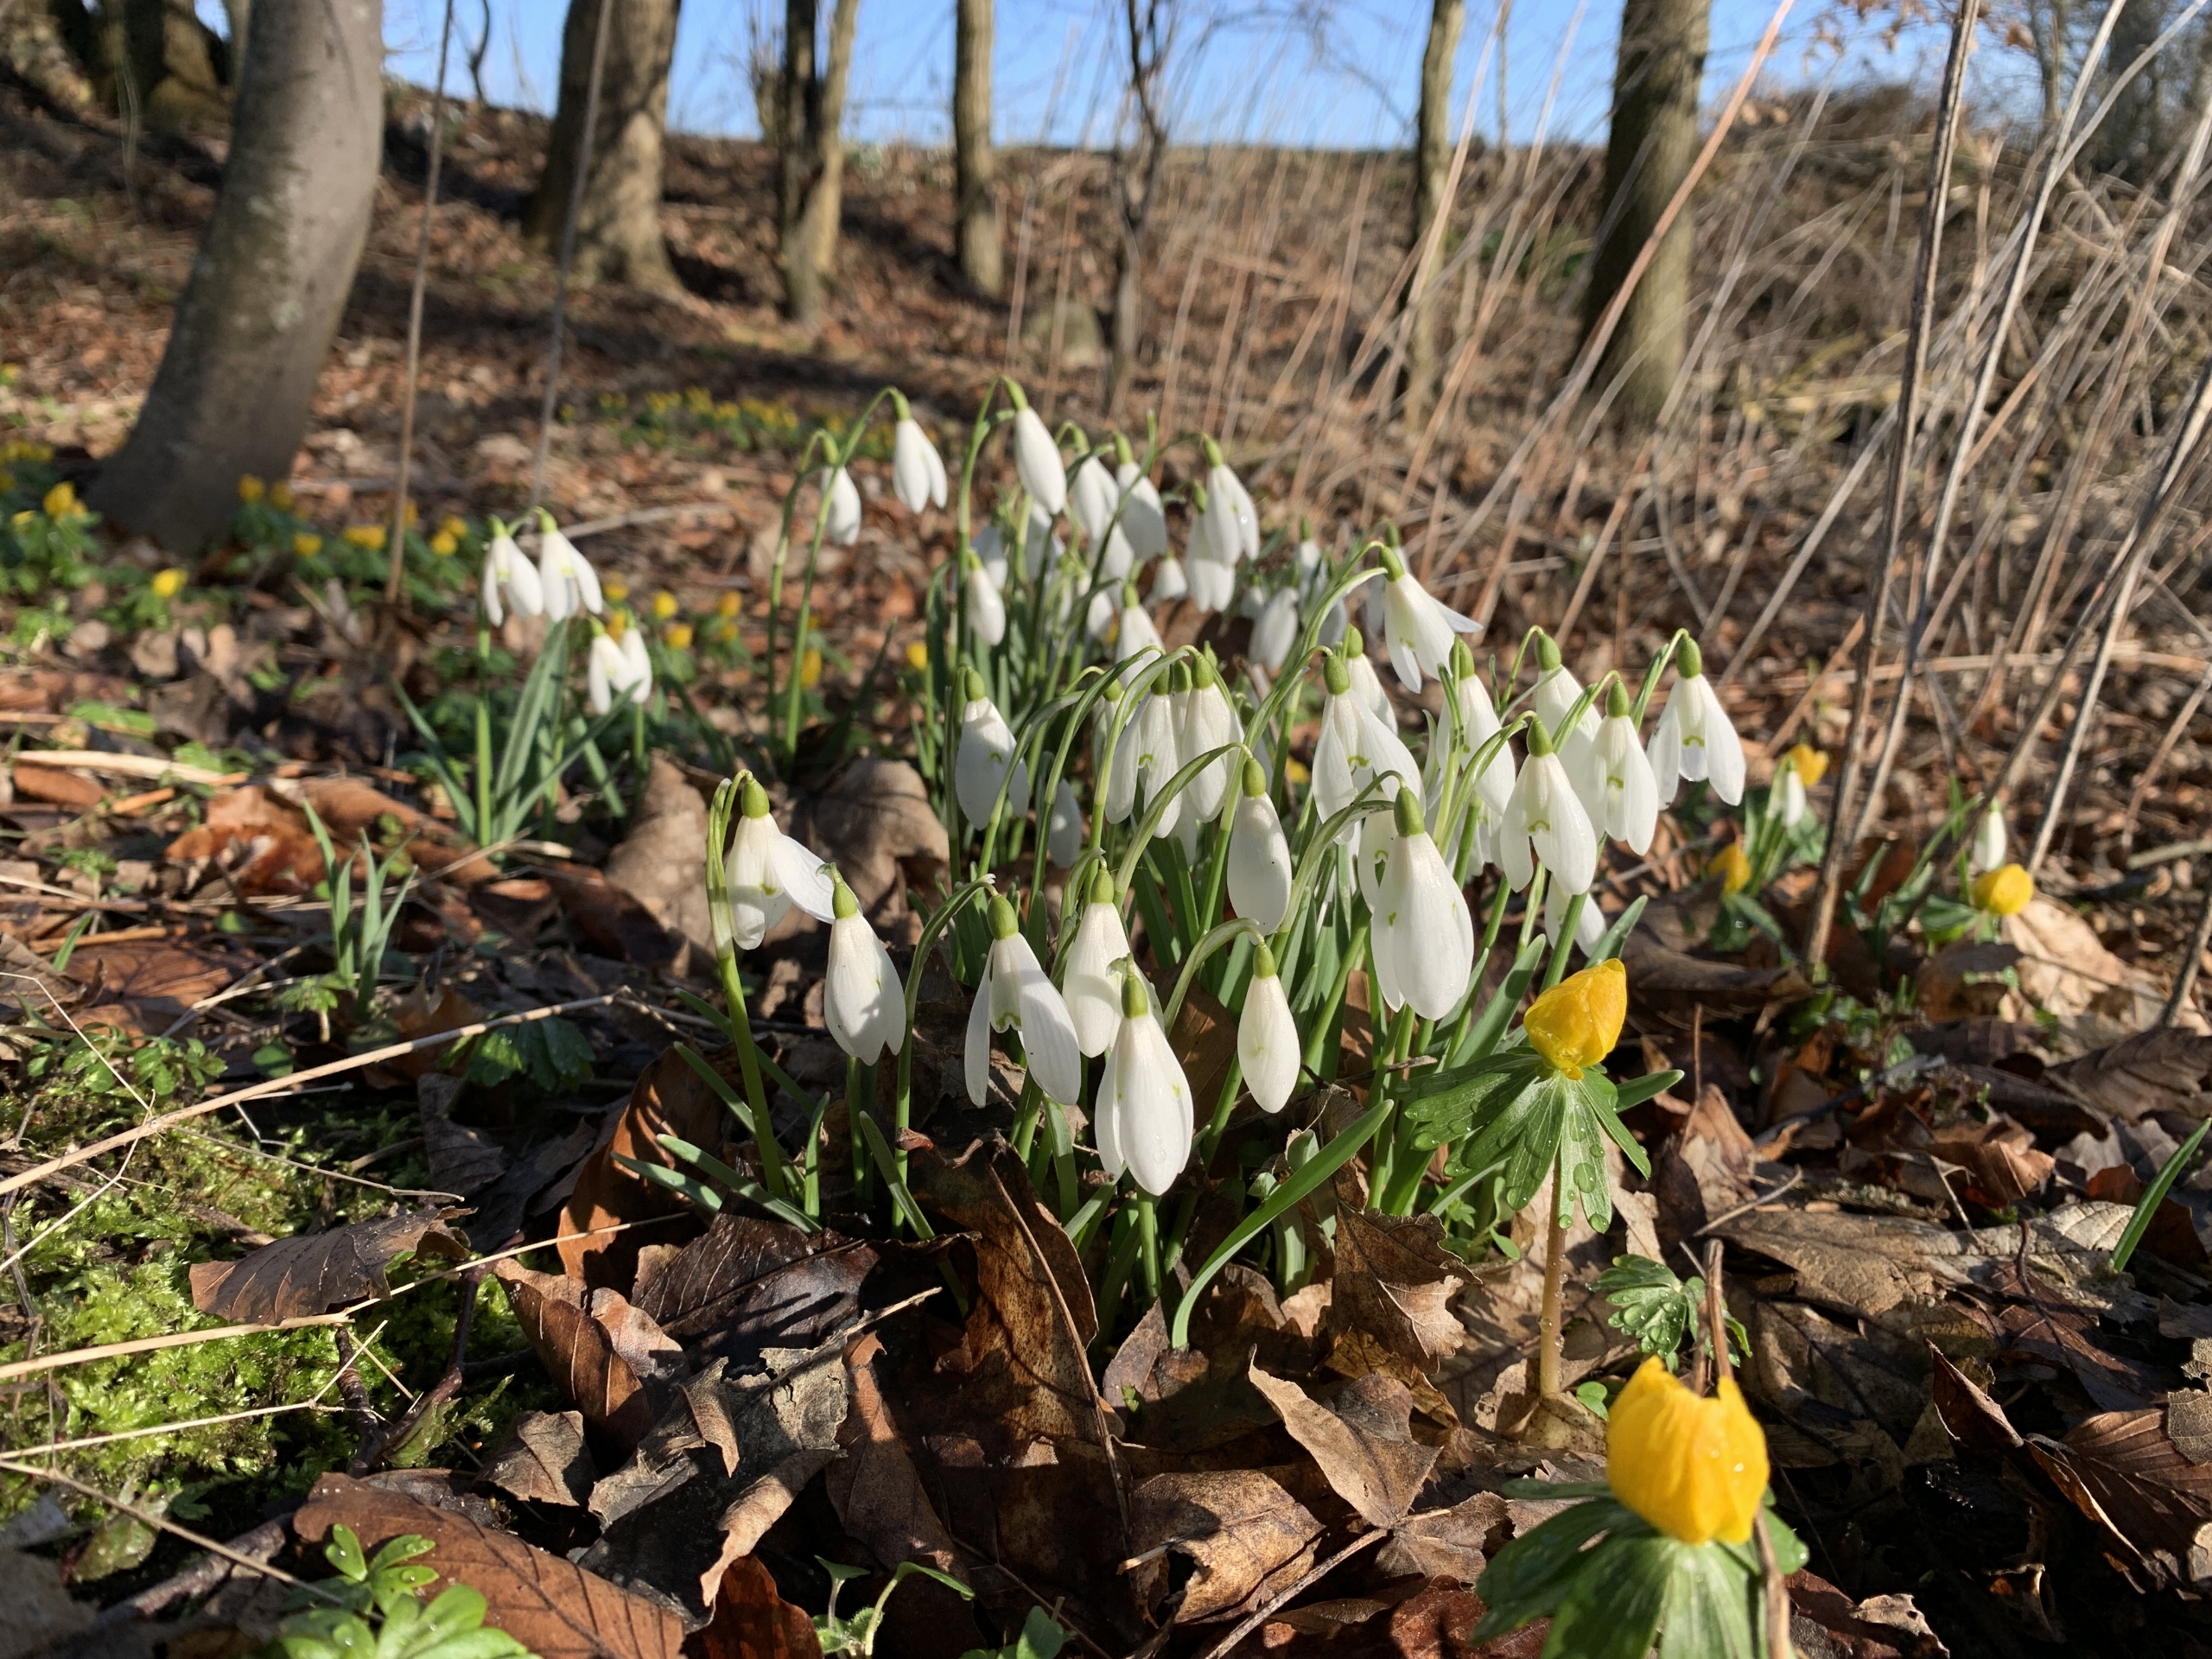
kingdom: Plantae
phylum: Tracheophyta
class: Liliopsida
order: Asparagales
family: Amaryllidaceae
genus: Galanthus
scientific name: Galanthus nivalis
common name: Vintergæk
